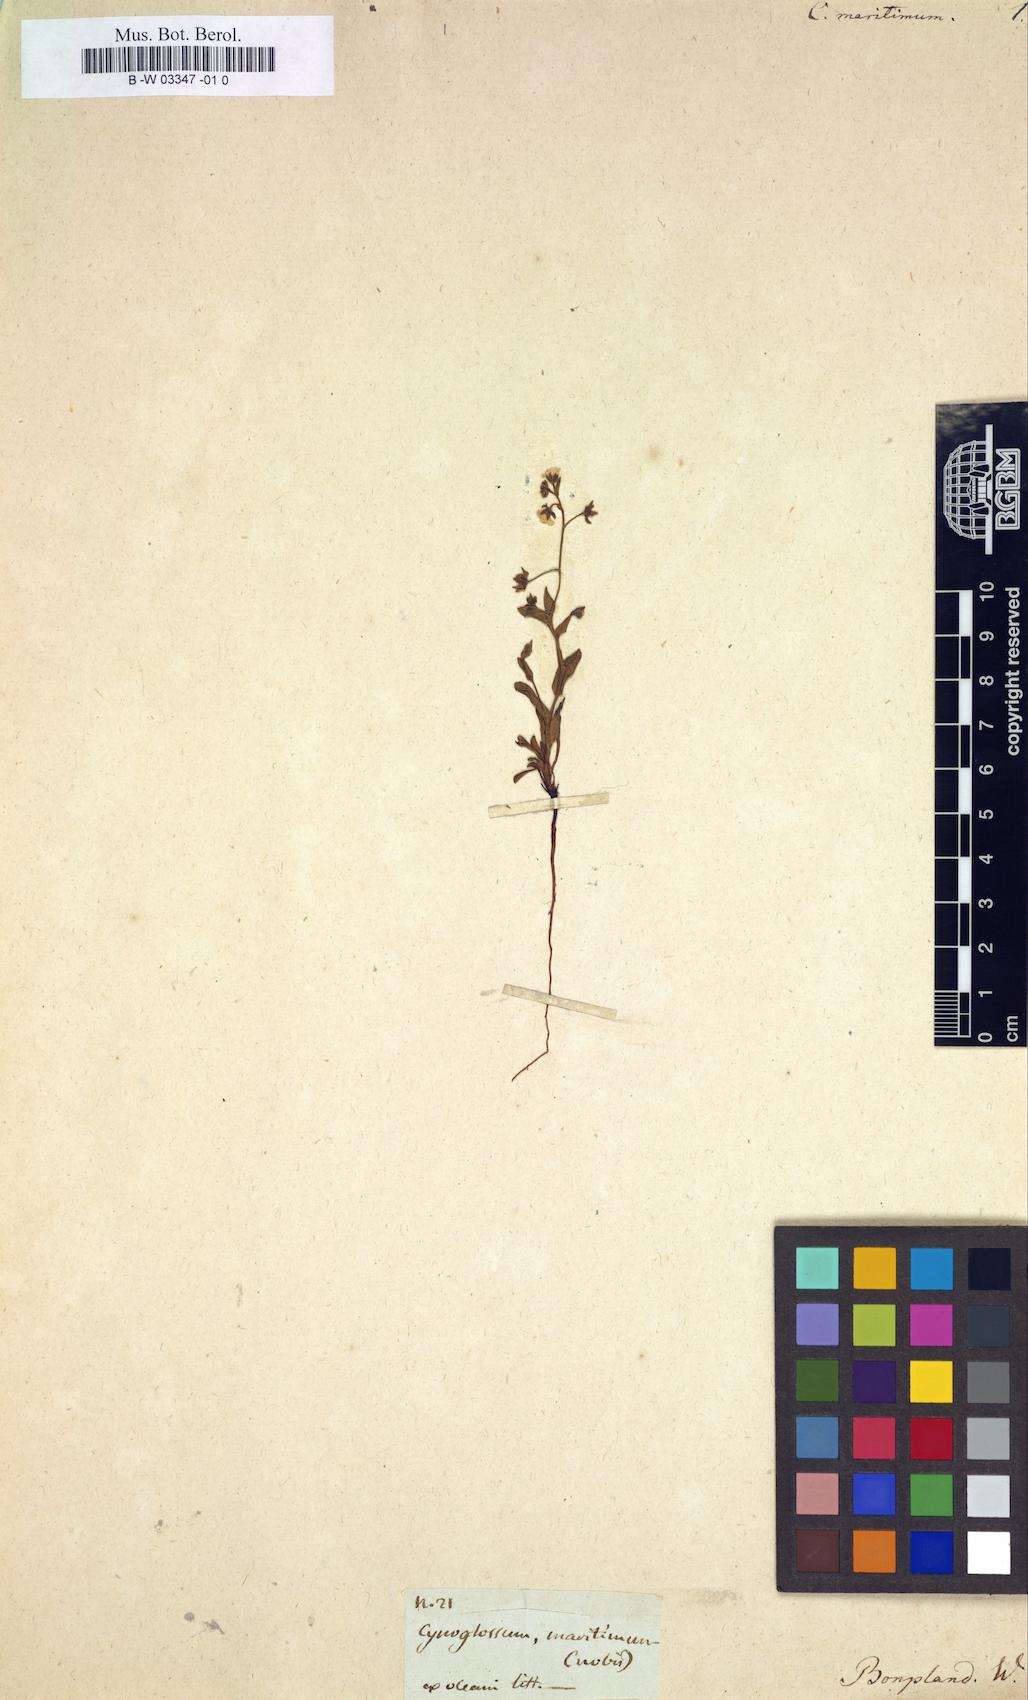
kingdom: Plantae
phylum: Tracheophyta
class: Magnoliopsida
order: Boraginales
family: Boraginaceae
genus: Iberodes
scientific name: Iberodes littoralis
